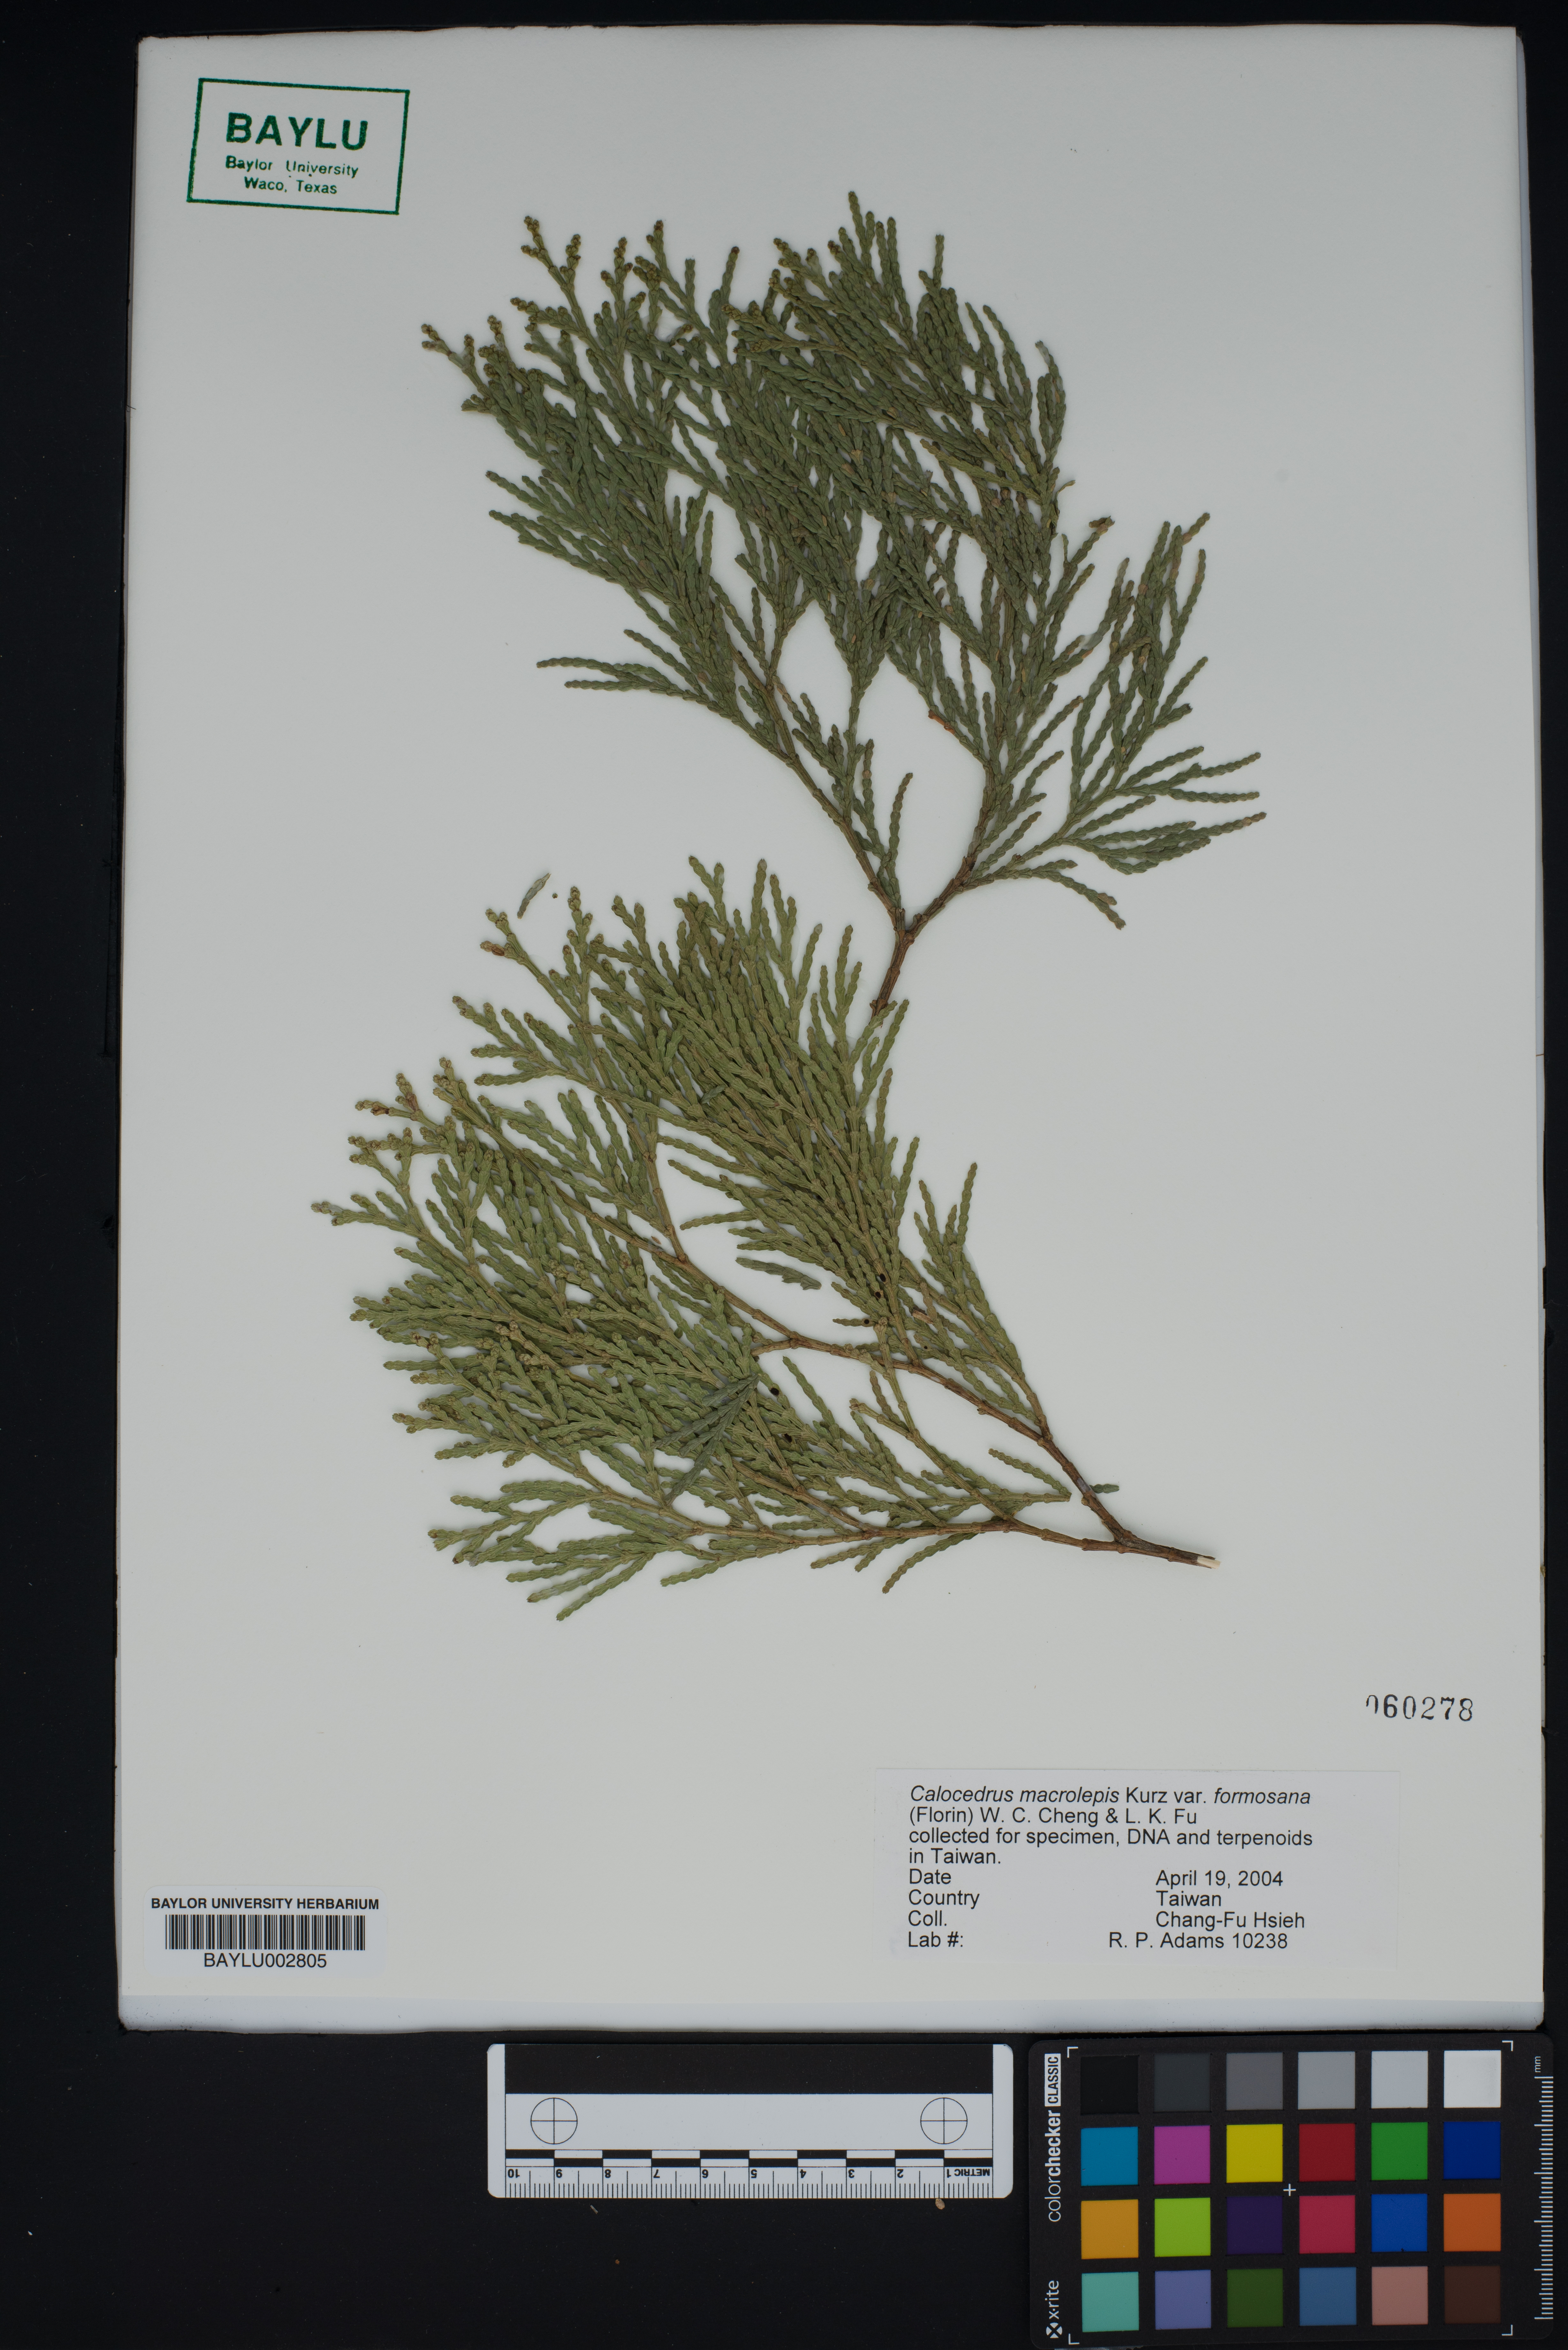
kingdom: Plantae
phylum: Tracheophyta
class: Pinopsida
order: Pinales
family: Cupressaceae
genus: Calocedrus
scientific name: Calocedrus formosana
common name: Taiwan incense-cedar
